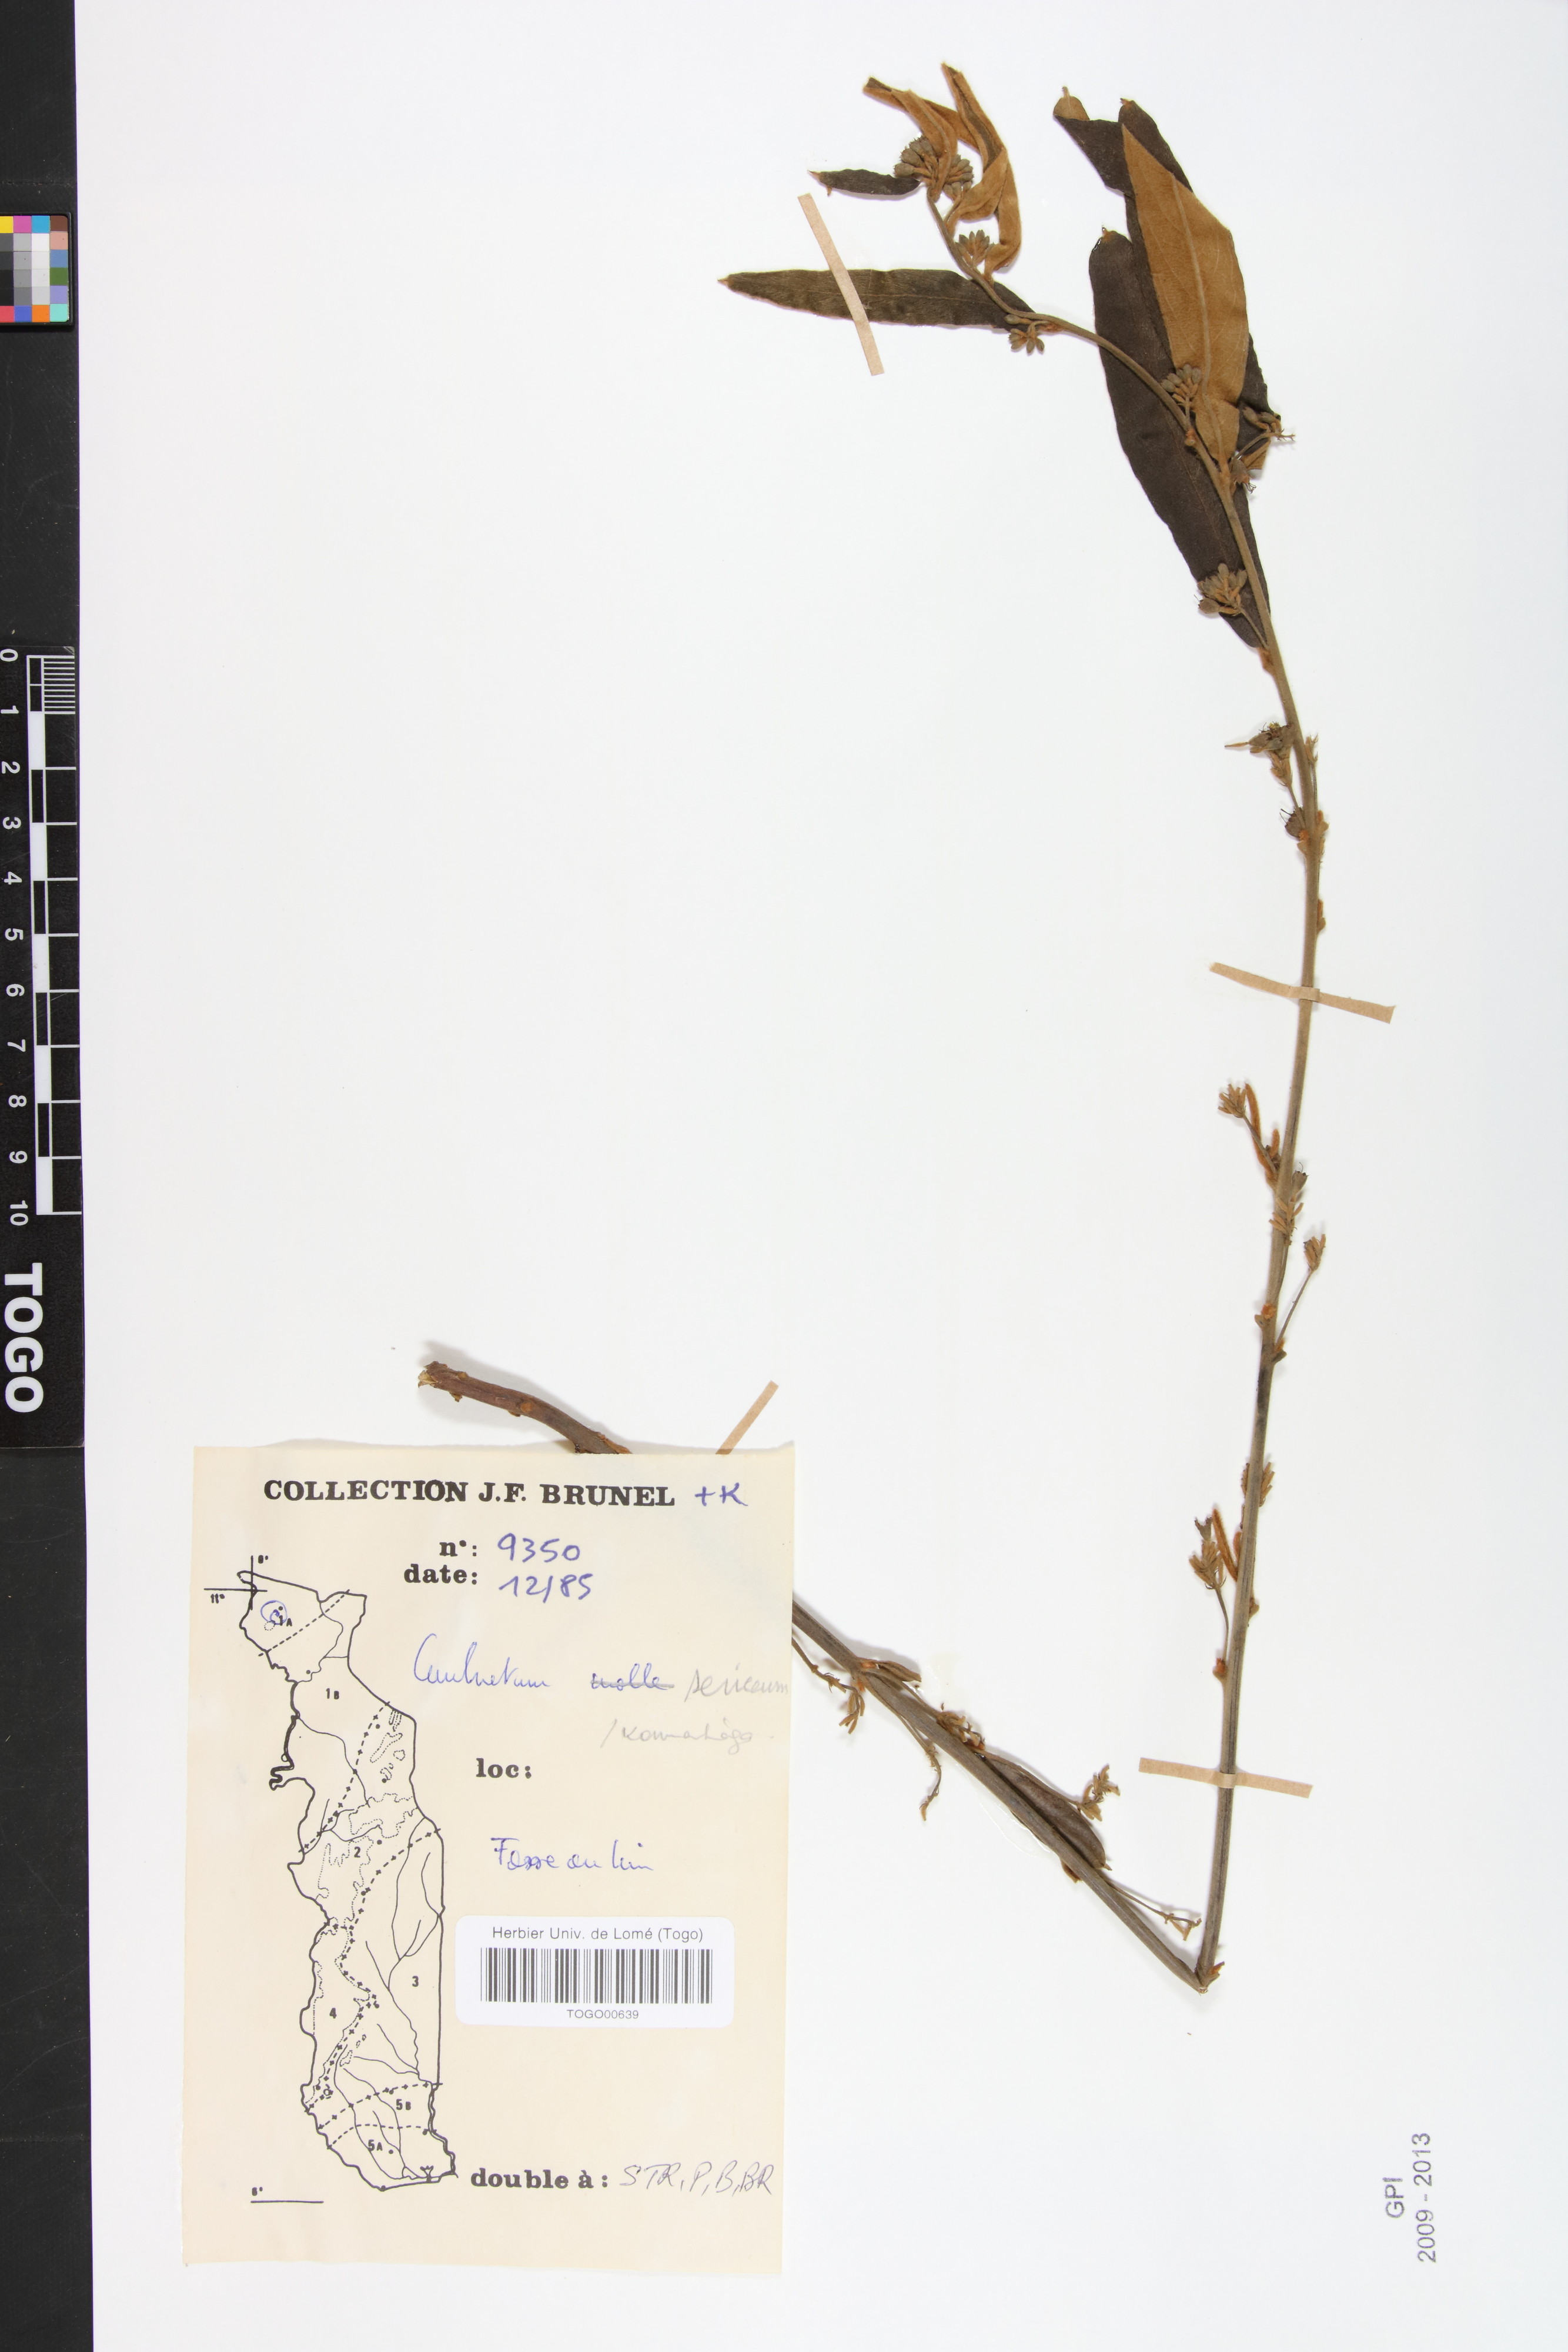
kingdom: Plantae
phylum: Tracheophyta
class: Magnoliopsida
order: Myrtales
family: Combretaceae
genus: Combretum
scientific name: Combretum sericeum
